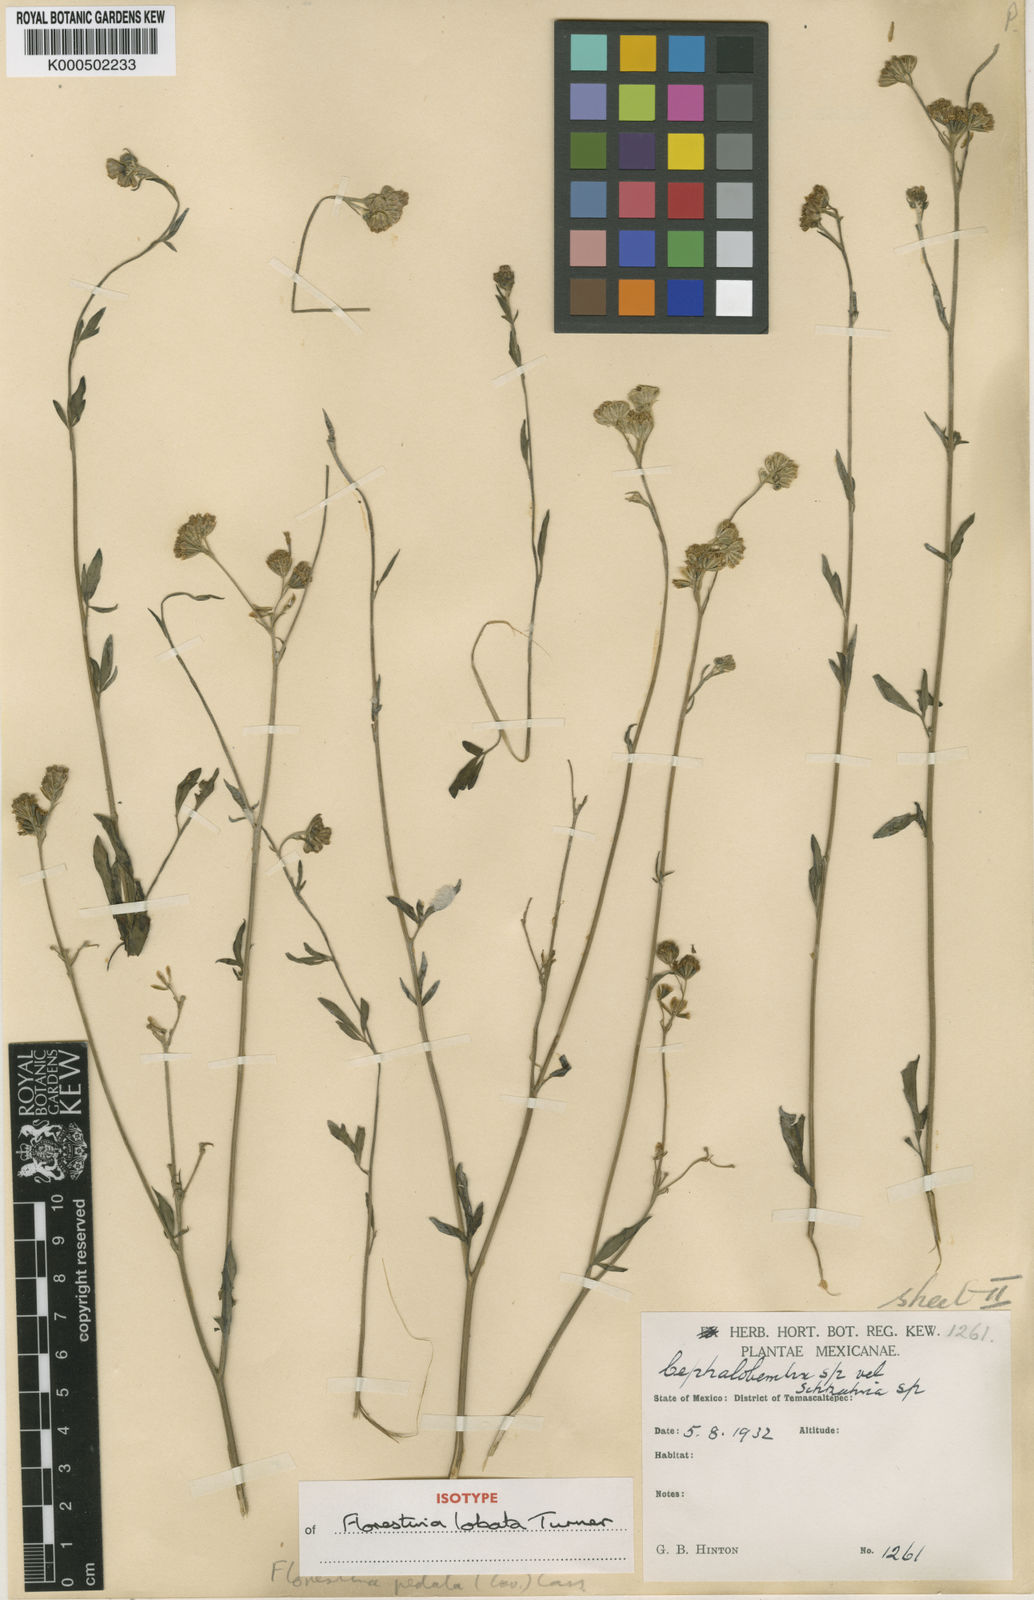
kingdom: Plantae
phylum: Tracheophyta
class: Magnoliopsida
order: Asterales
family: Asteraceae
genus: Florestina
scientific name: Florestina lobata
